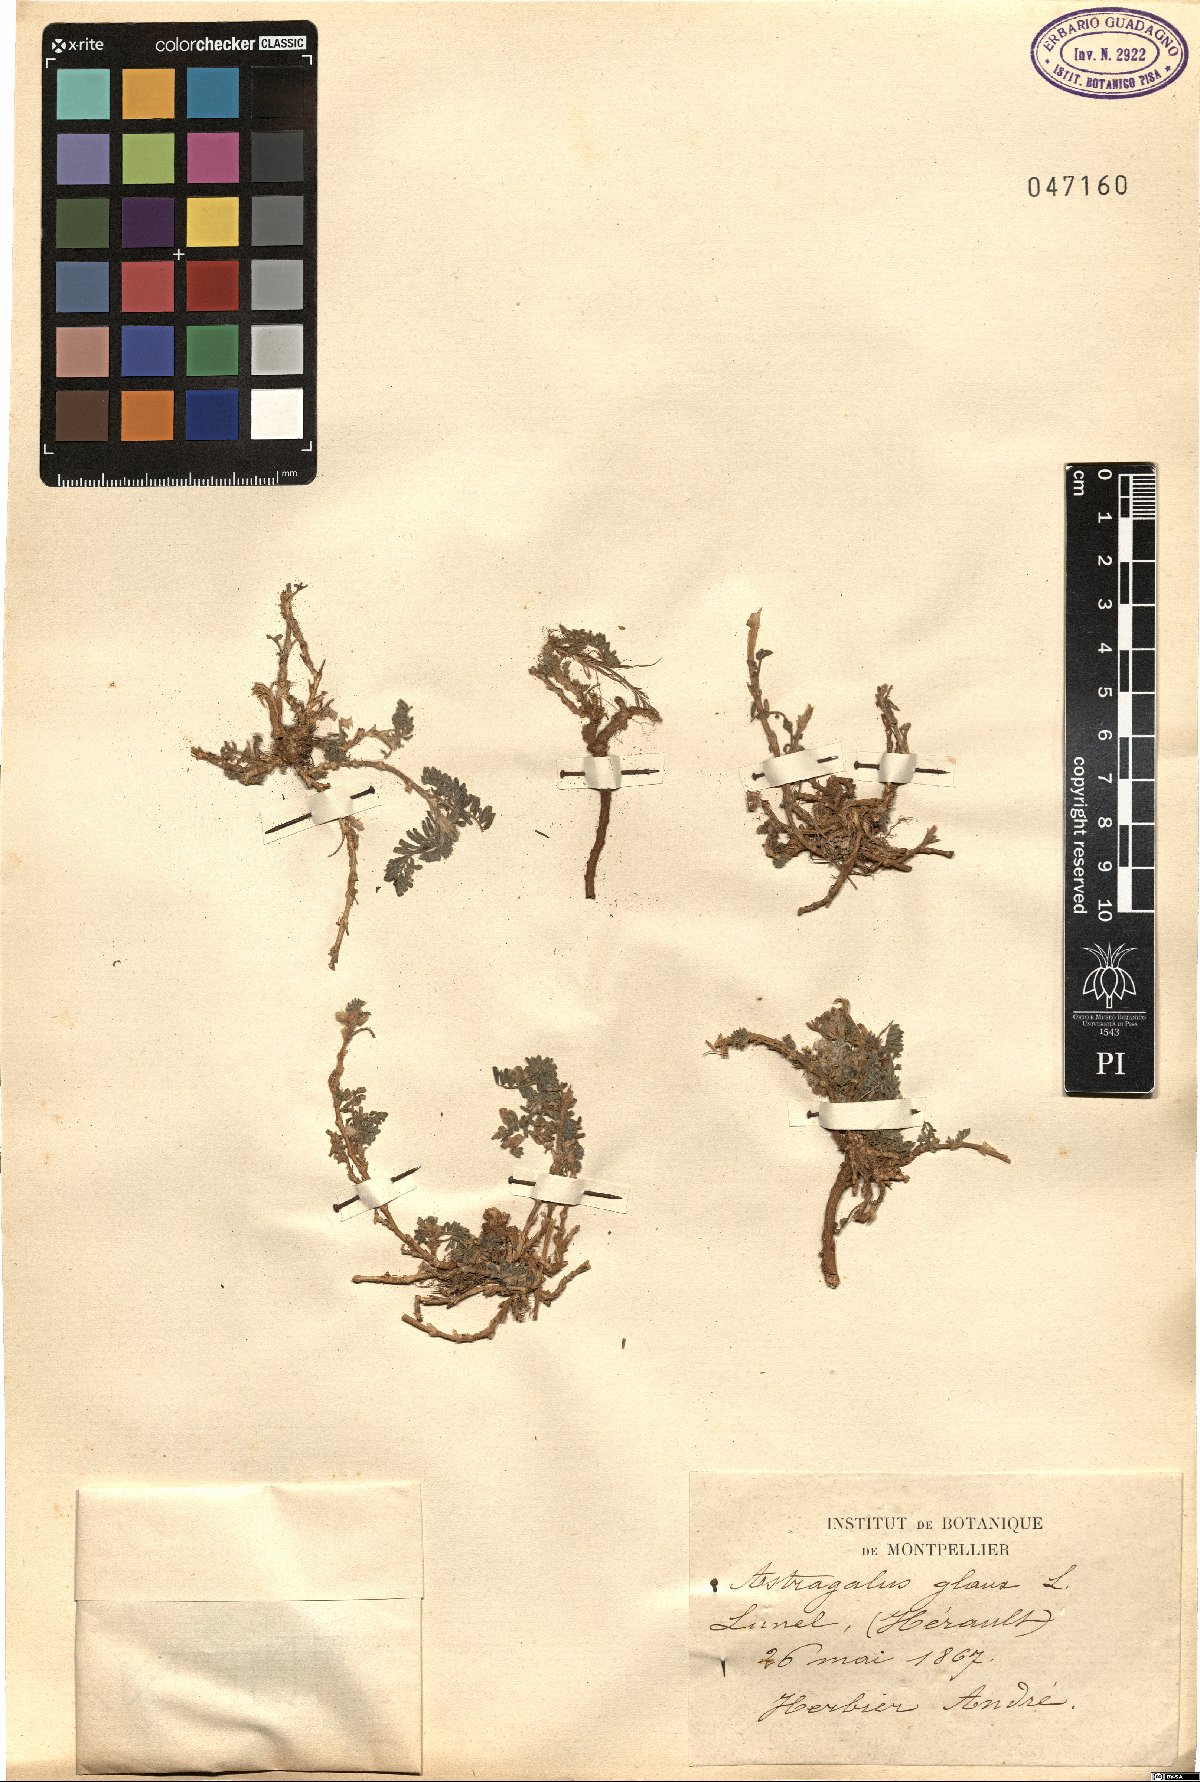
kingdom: Plantae
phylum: Tracheophyta
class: Magnoliopsida
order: Fabales
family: Fabaceae
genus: Astragalus
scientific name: Astragalus glaux
